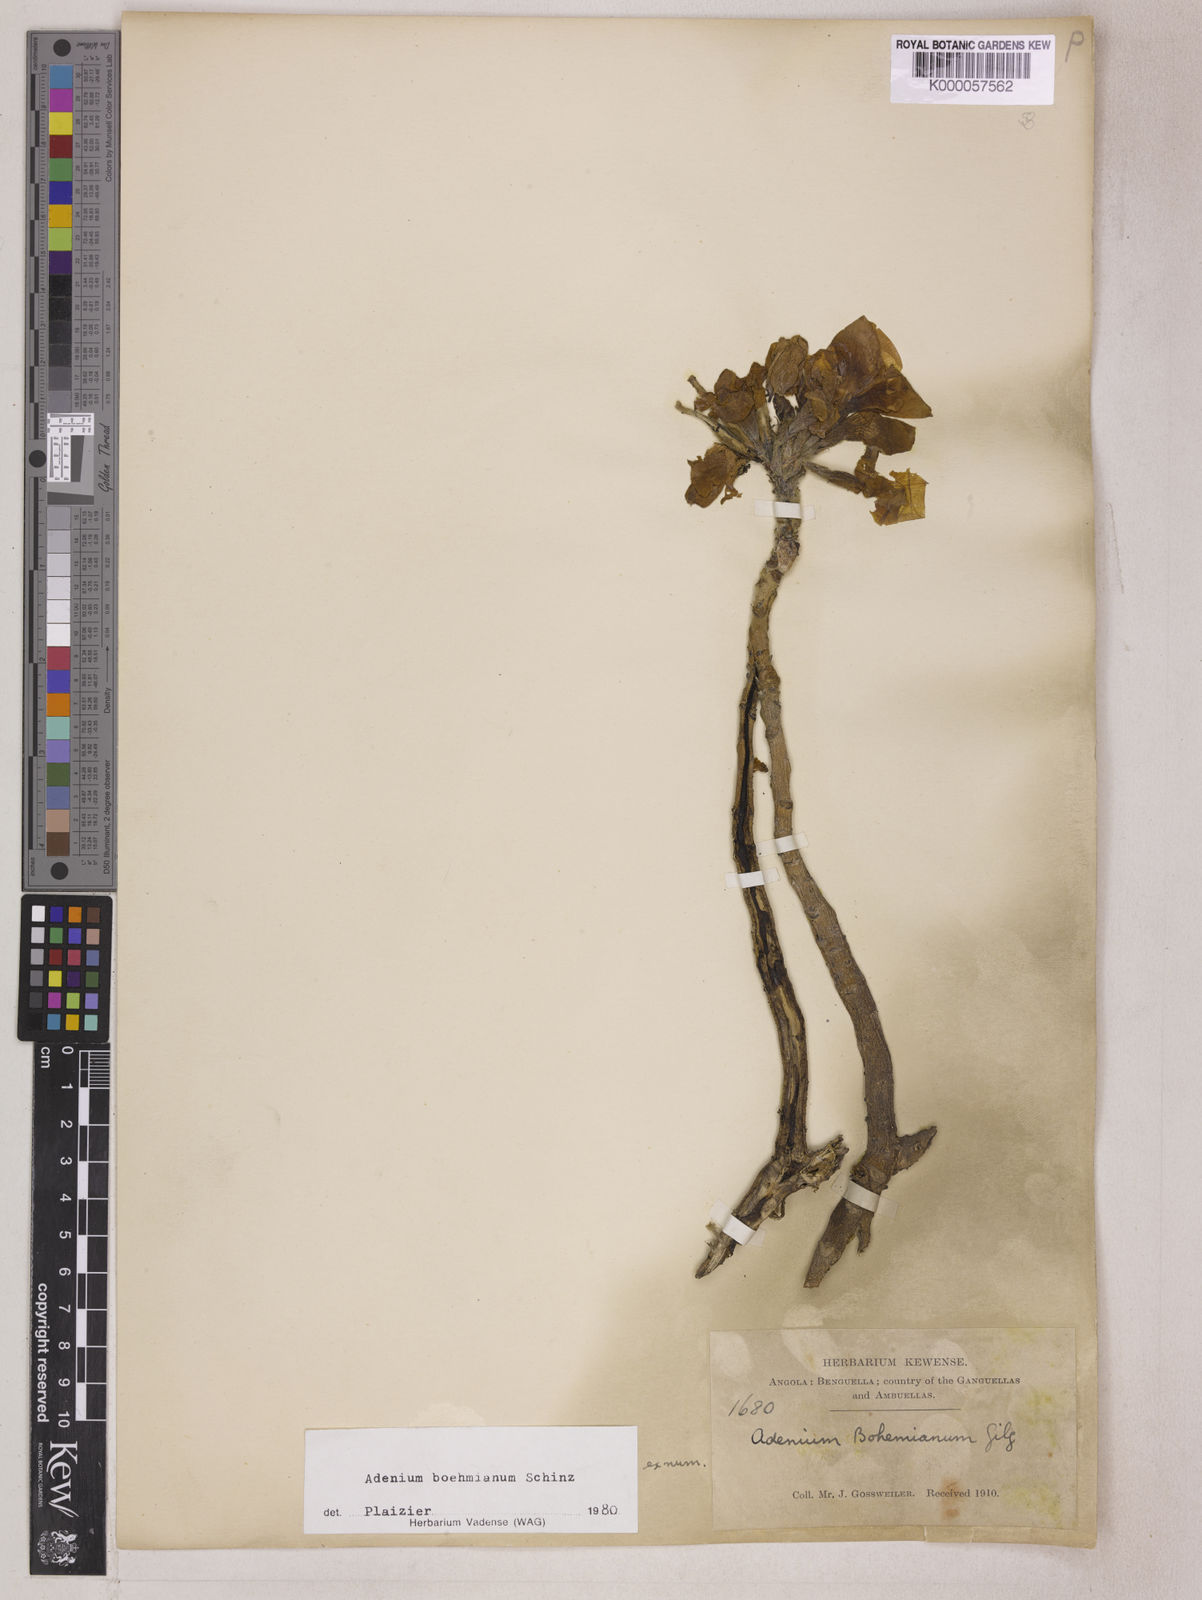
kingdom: Plantae
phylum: Tracheophyta
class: Magnoliopsida
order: Gentianales
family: Apocynaceae
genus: Adenium
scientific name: Adenium obesum
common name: Desert-rose
